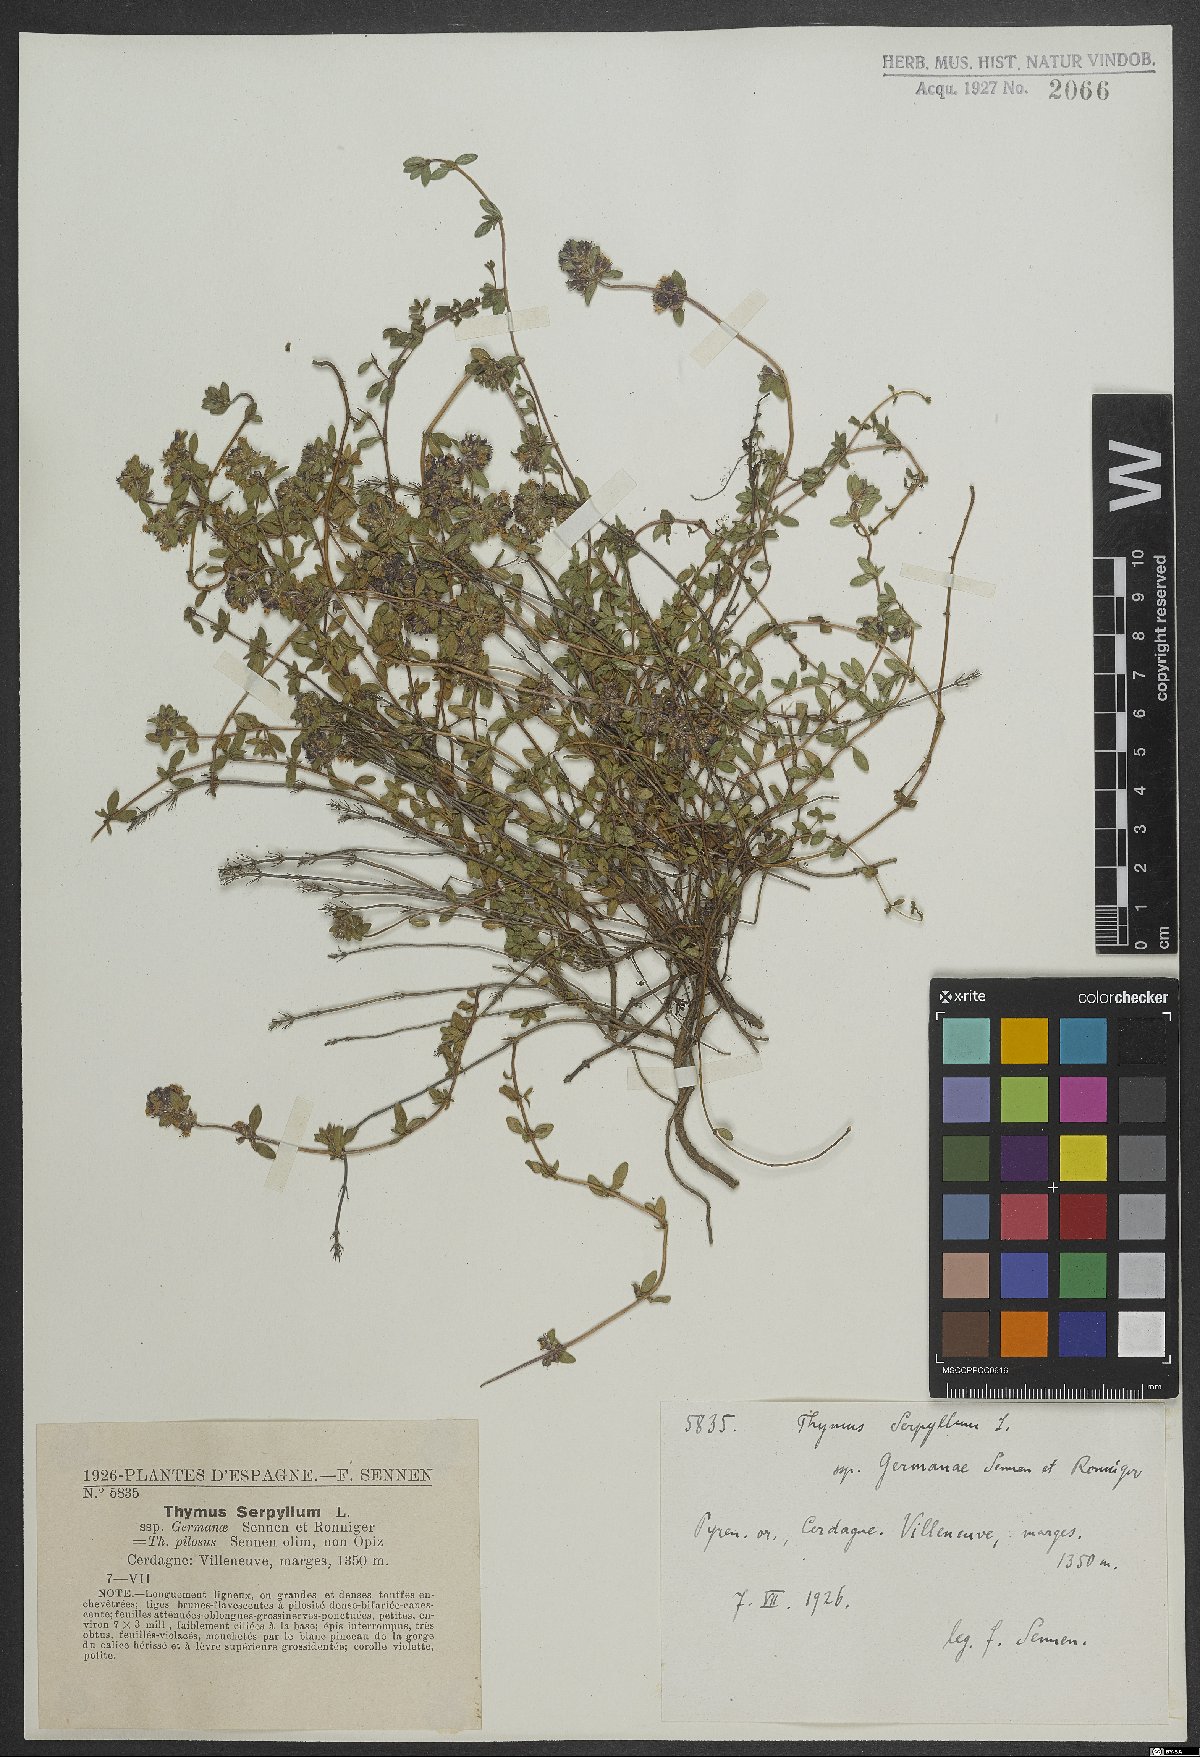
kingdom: Plantae
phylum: Tracheophyta
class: Magnoliopsida
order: Lamiales
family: Lamiaceae
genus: Thymus
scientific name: Thymus serpyllum
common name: Breckland thyme
